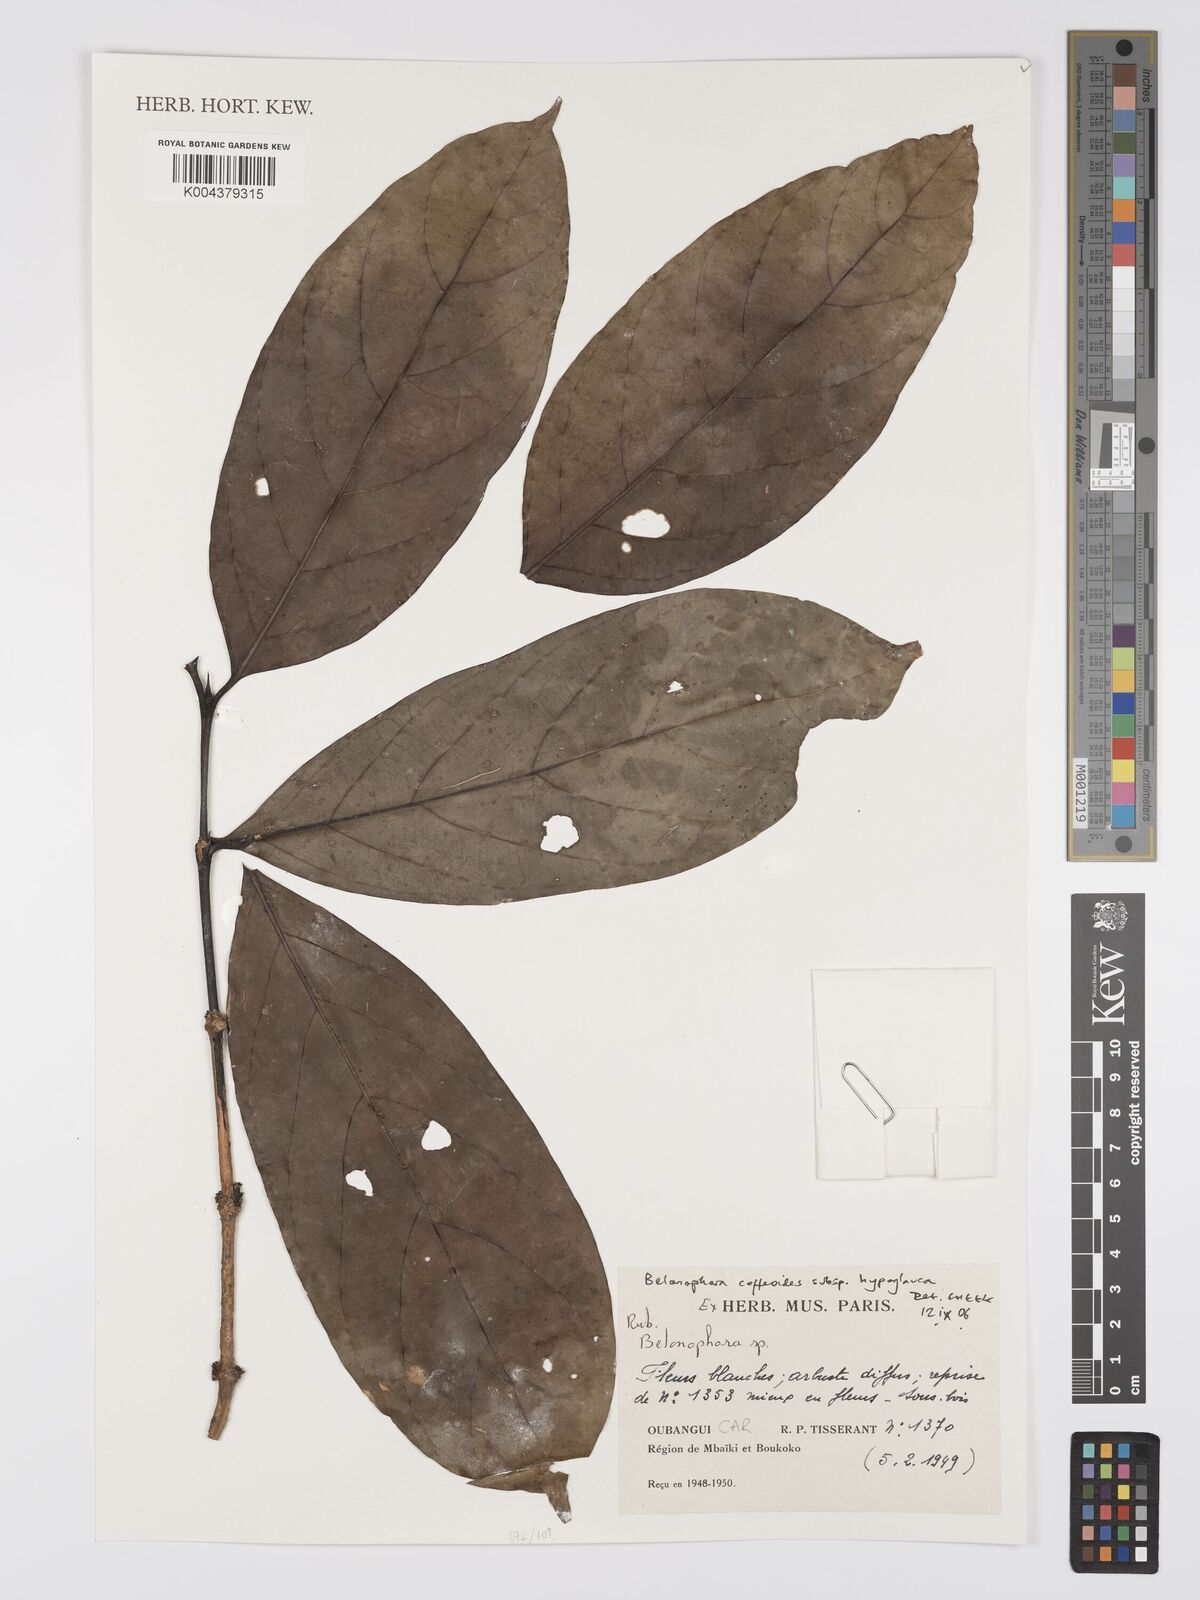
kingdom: Plantae
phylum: Tracheophyta
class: Magnoliopsida
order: Gentianales
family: Rubiaceae
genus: Belonophora
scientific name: Belonophora coffeoides
